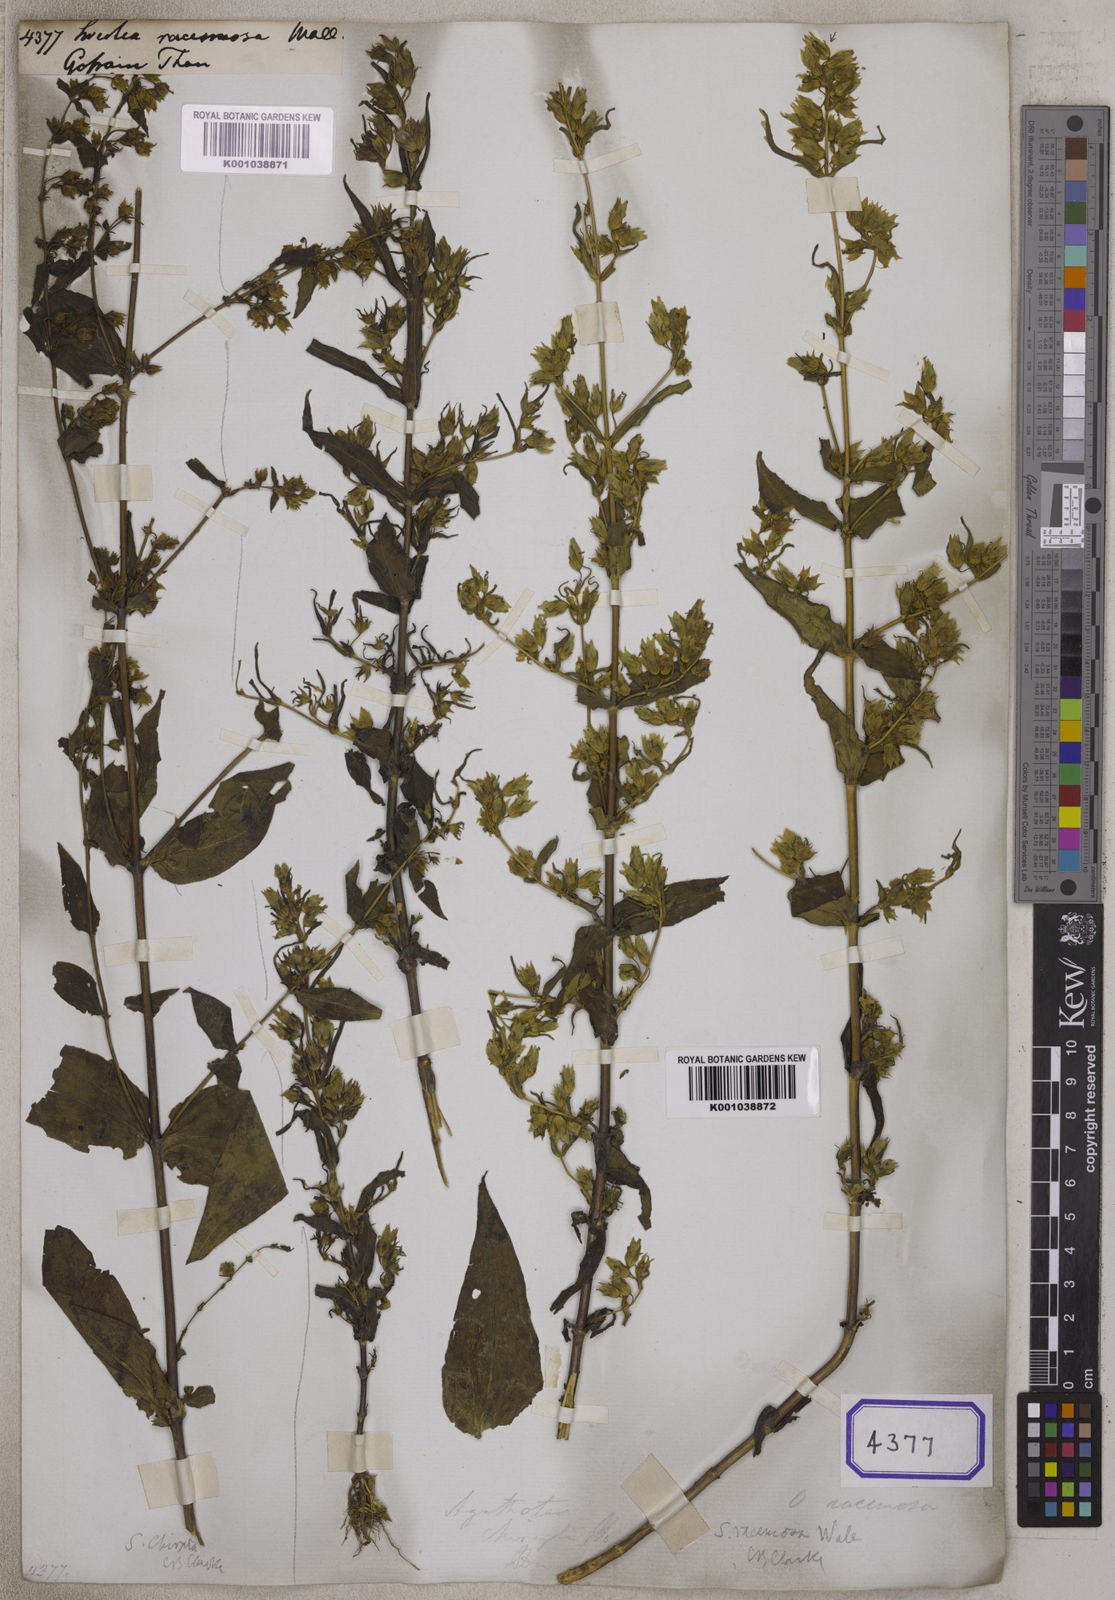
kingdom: Plantae
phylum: Tracheophyta
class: Magnoliopsida
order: Gentianales
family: Gentianaceae
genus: Swertia
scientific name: Swertia
